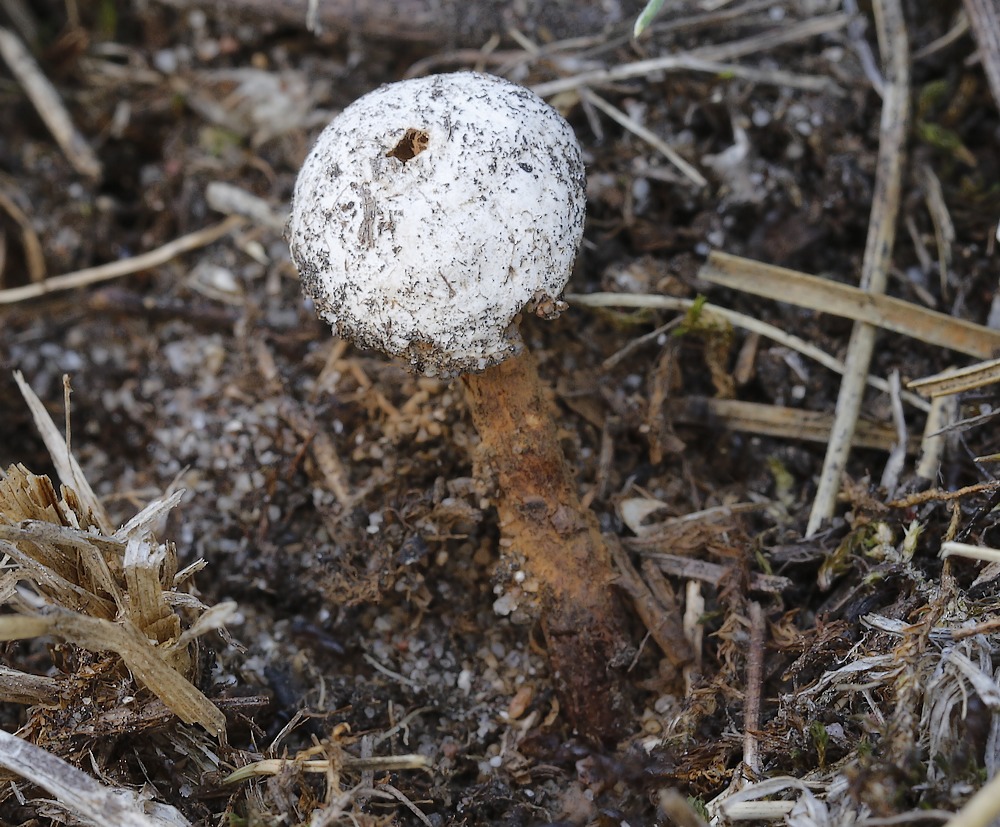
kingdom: Fungi
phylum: Basidiomycota
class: Agaricomycetes
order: Agaricales
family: Agaricaceae
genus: Tulostoma
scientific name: Tulostoma winterhoffii
